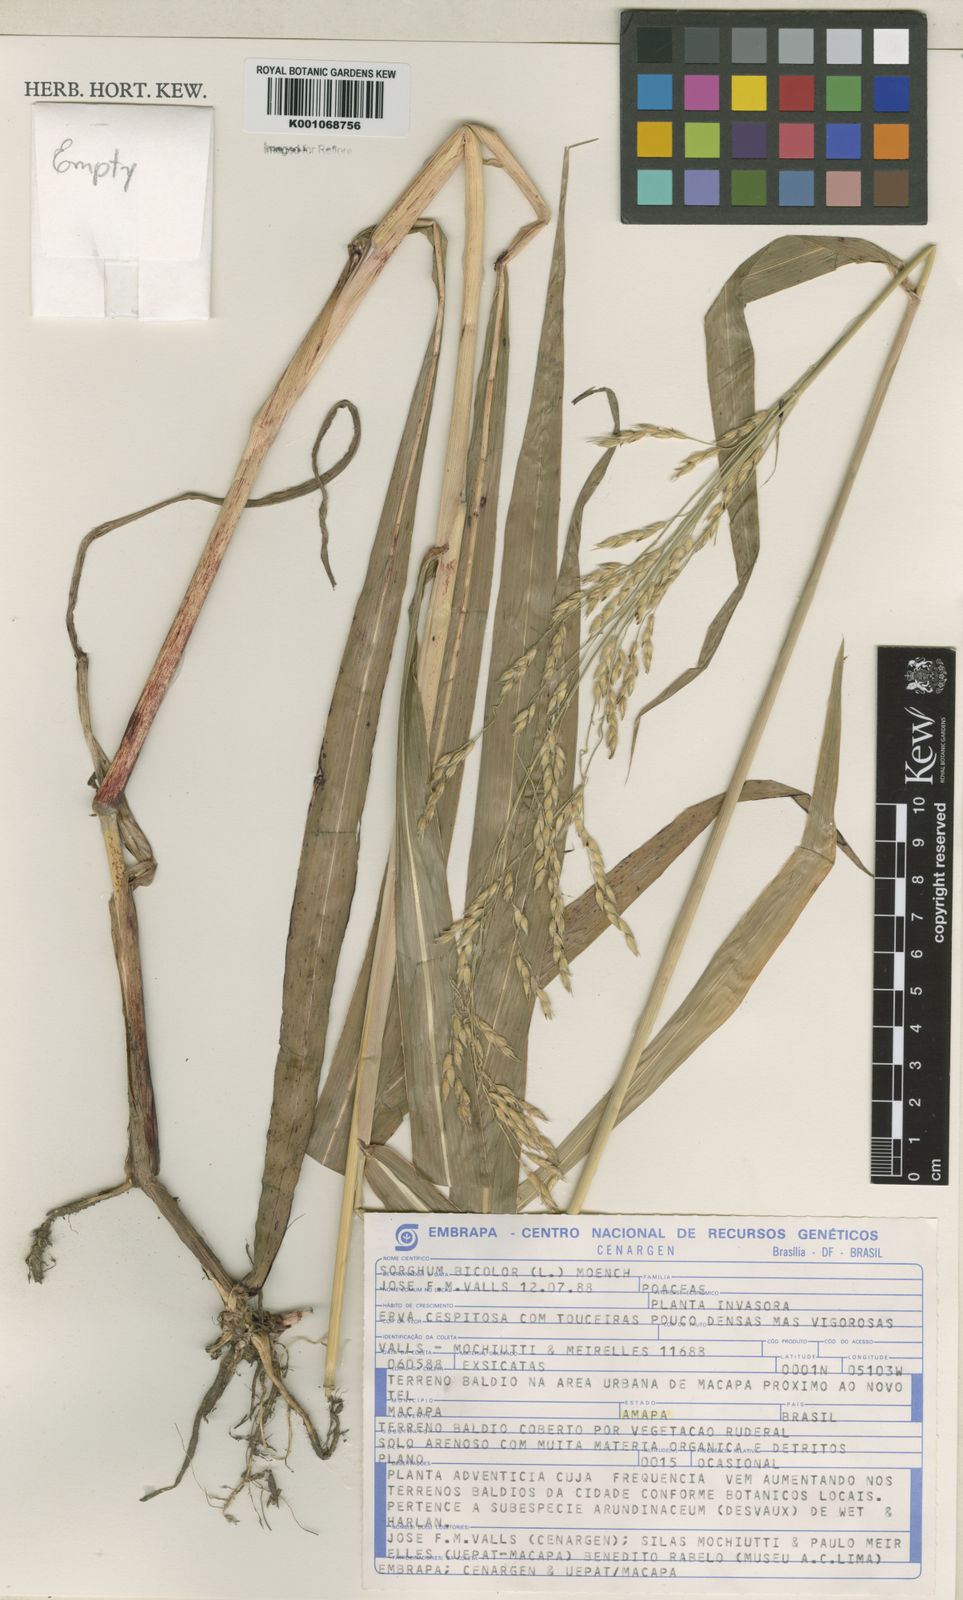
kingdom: Plantae
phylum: Tracheophyta
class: Liliopsida
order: Poales
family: Poaceae
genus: Sorghum
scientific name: Sorghum halepense
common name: Johnson-grass
